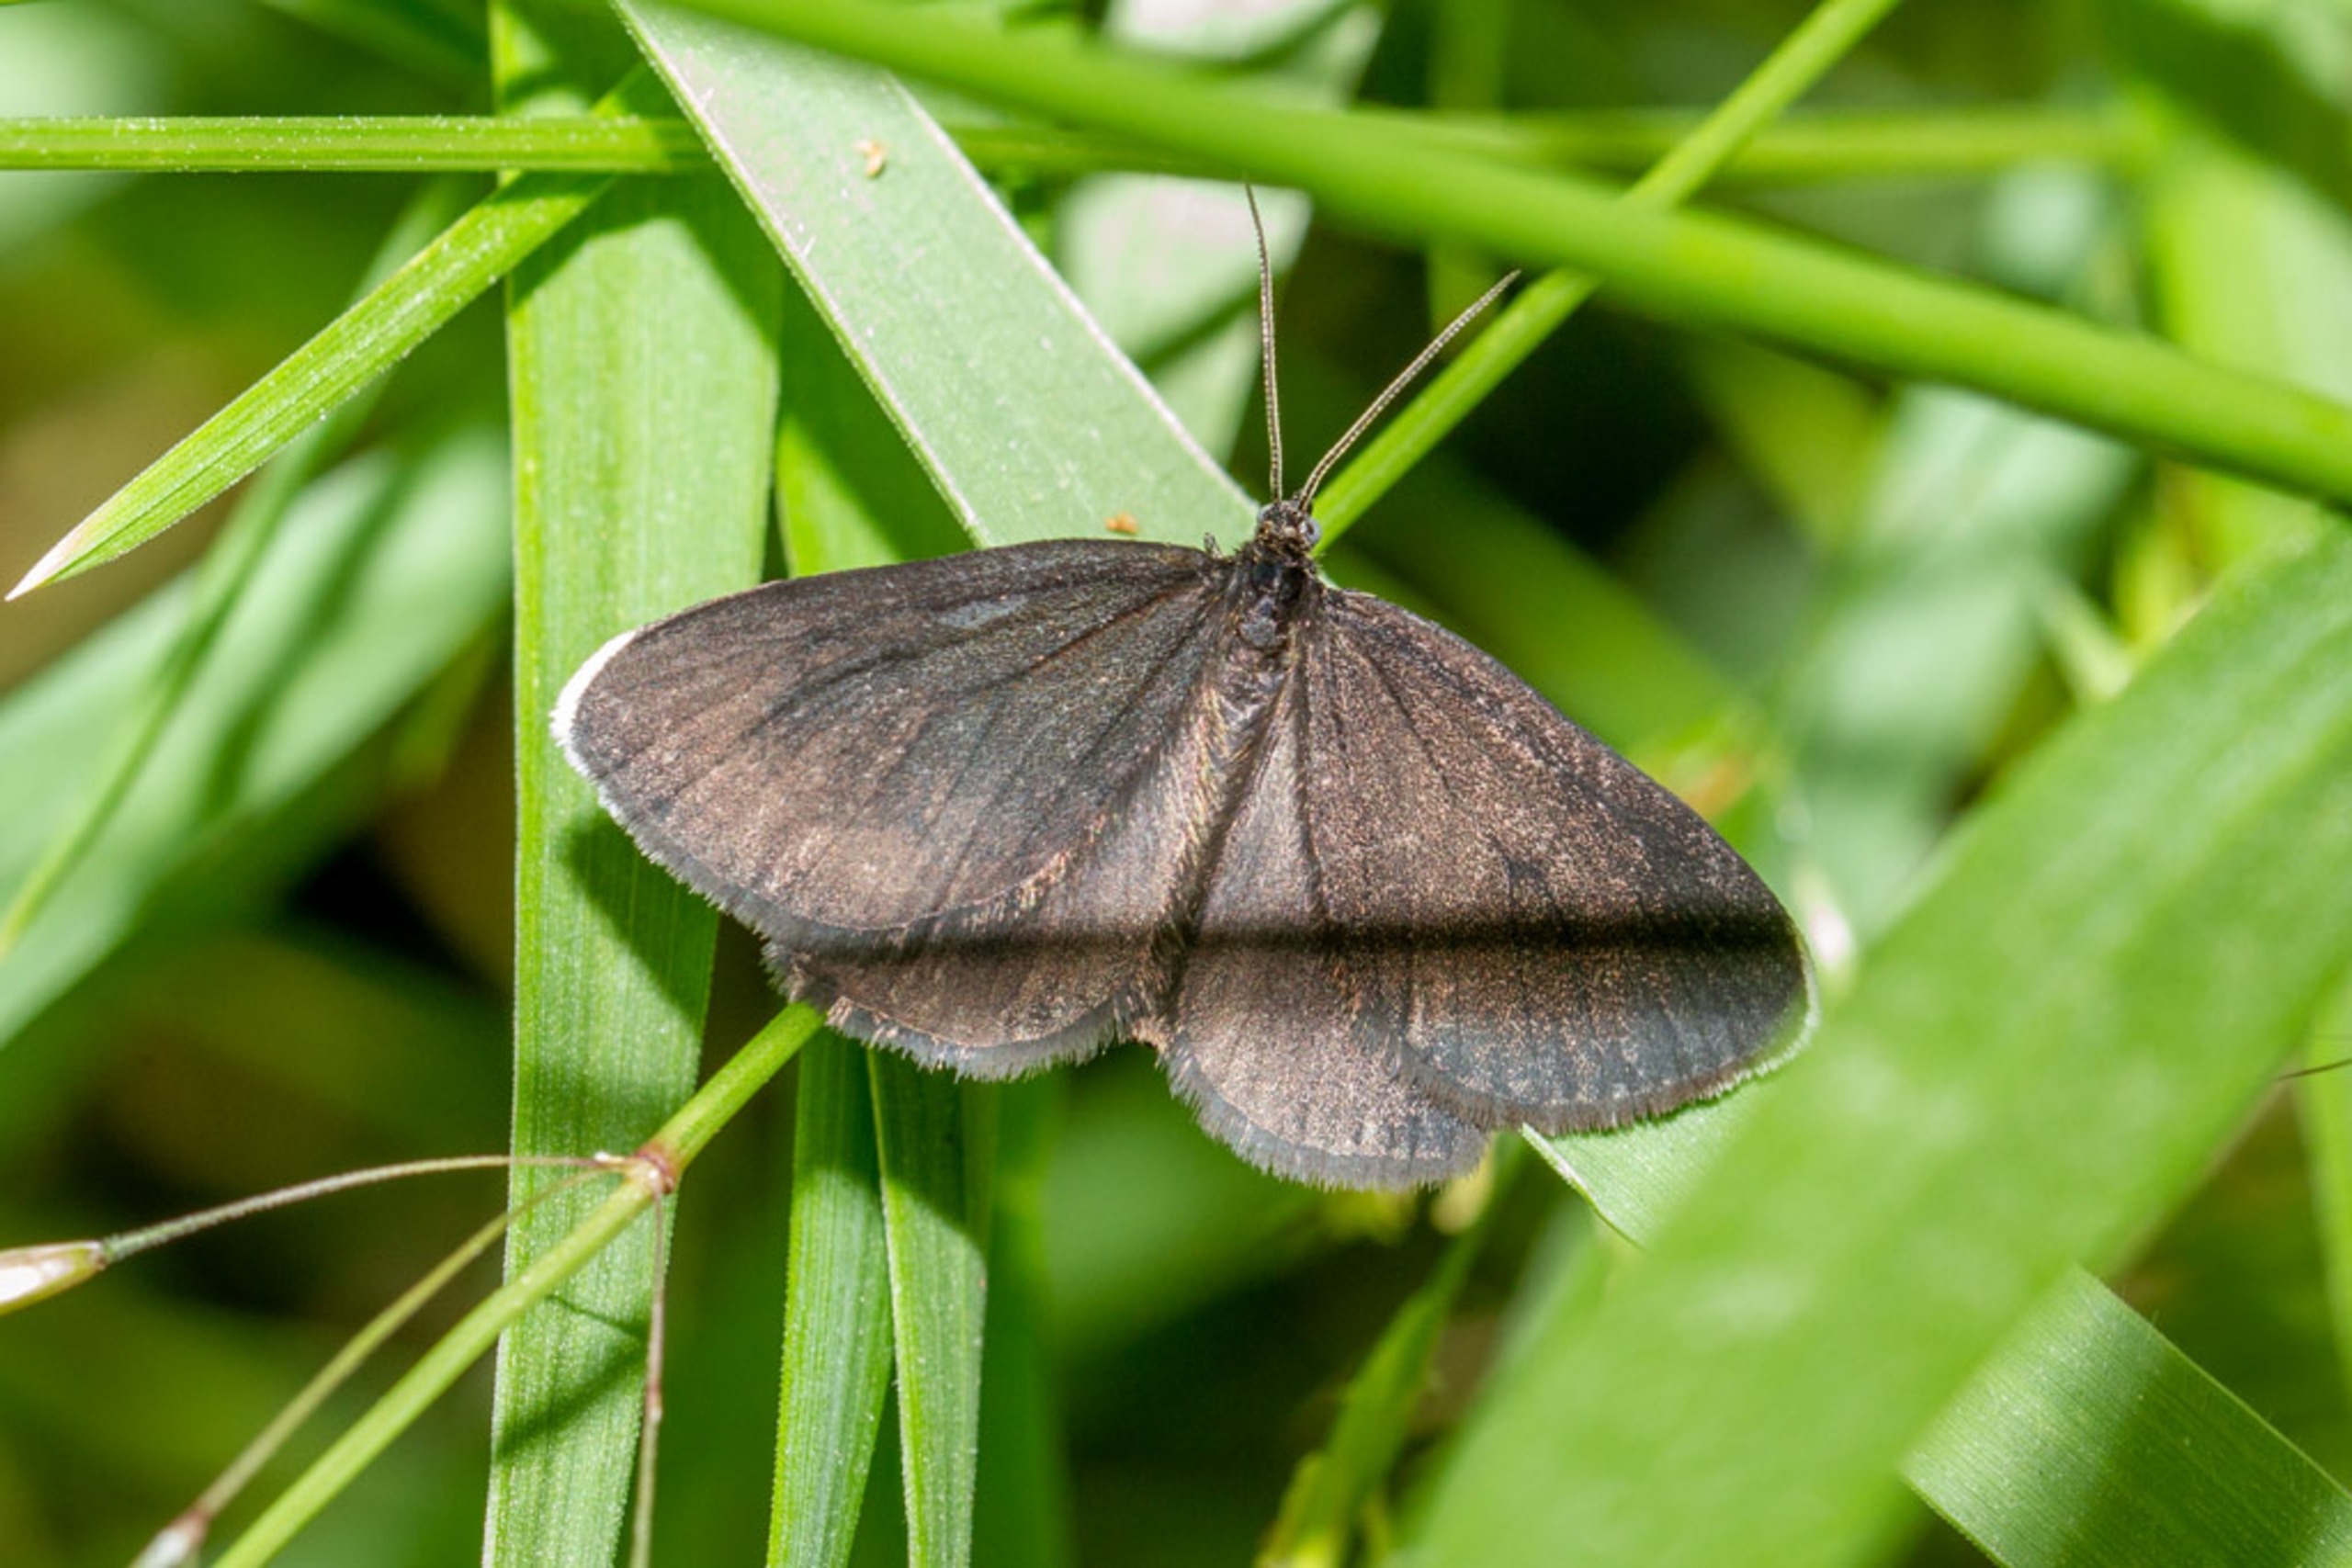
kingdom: Animalia
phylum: Arthropoda
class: Insecta
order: Lepidoptera
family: Geometridae
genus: Odezia
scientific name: Odezia atrata
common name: Sort måler
